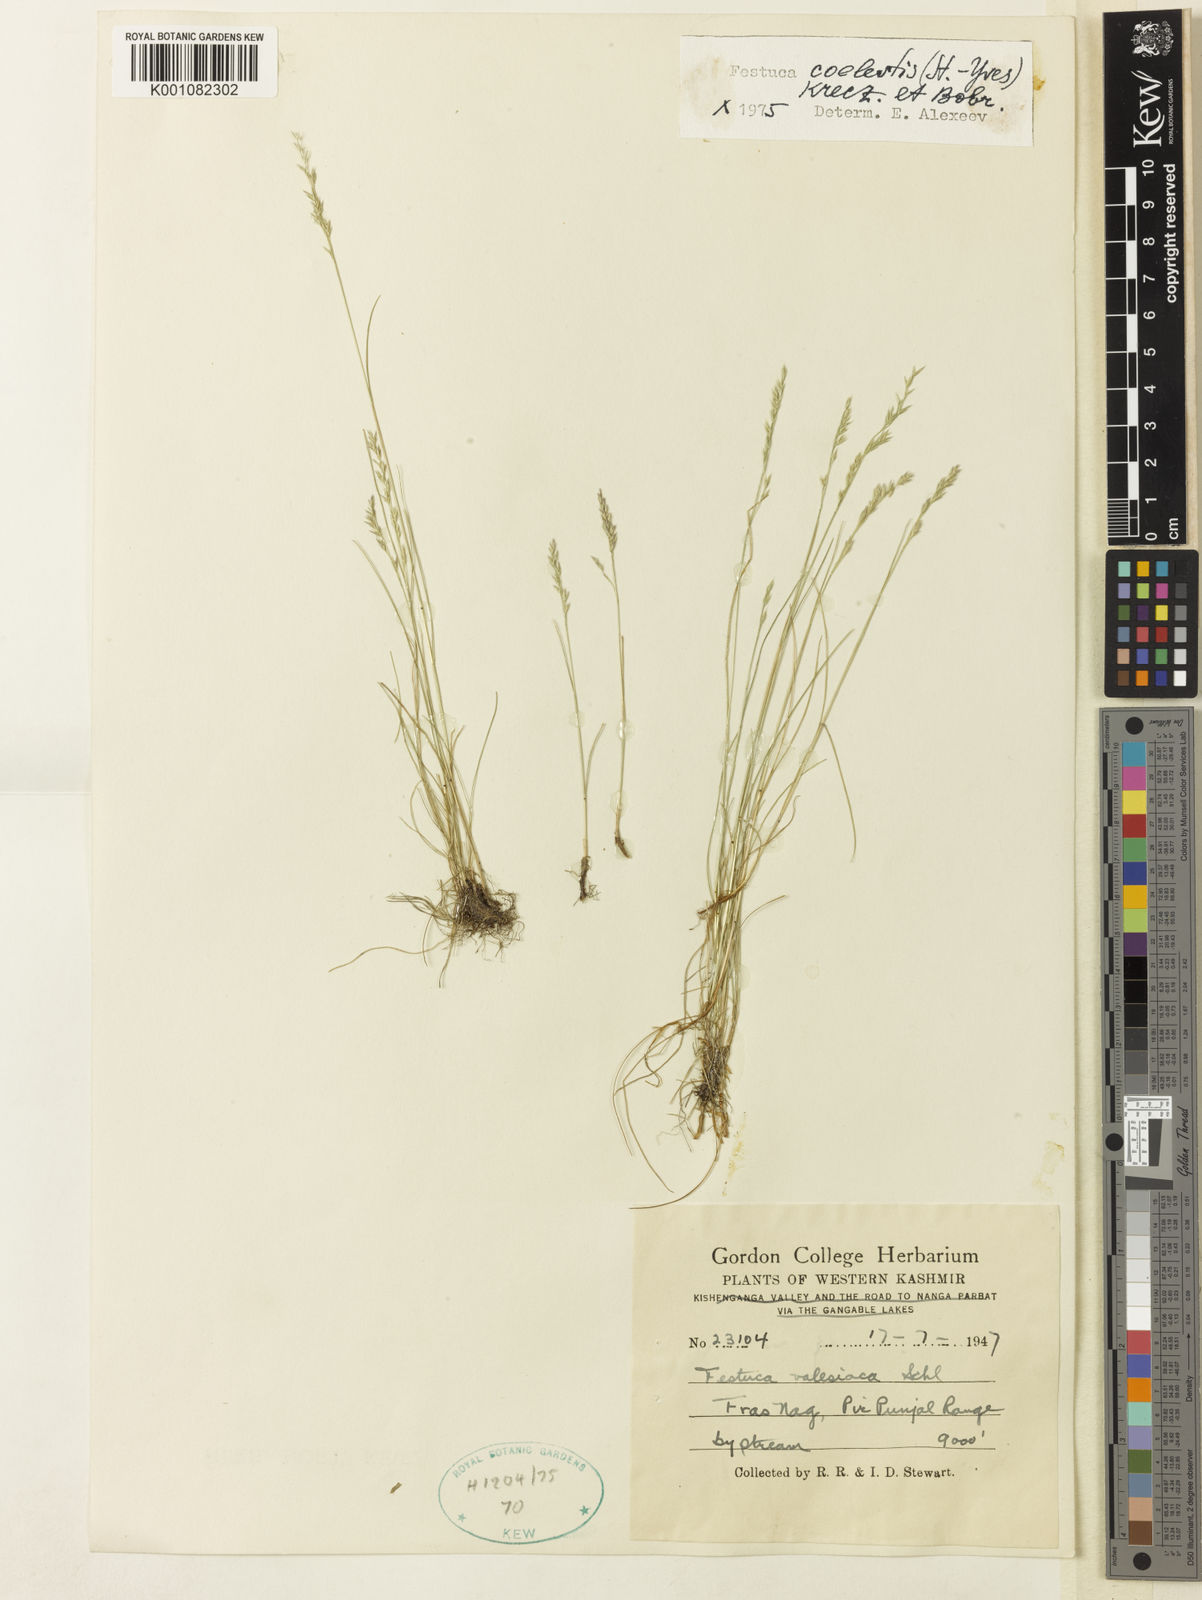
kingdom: Plantae
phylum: Tracheophyta
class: Liliopsida
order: Poales
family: Poaceae
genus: Festuca
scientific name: Festuca coelestis
